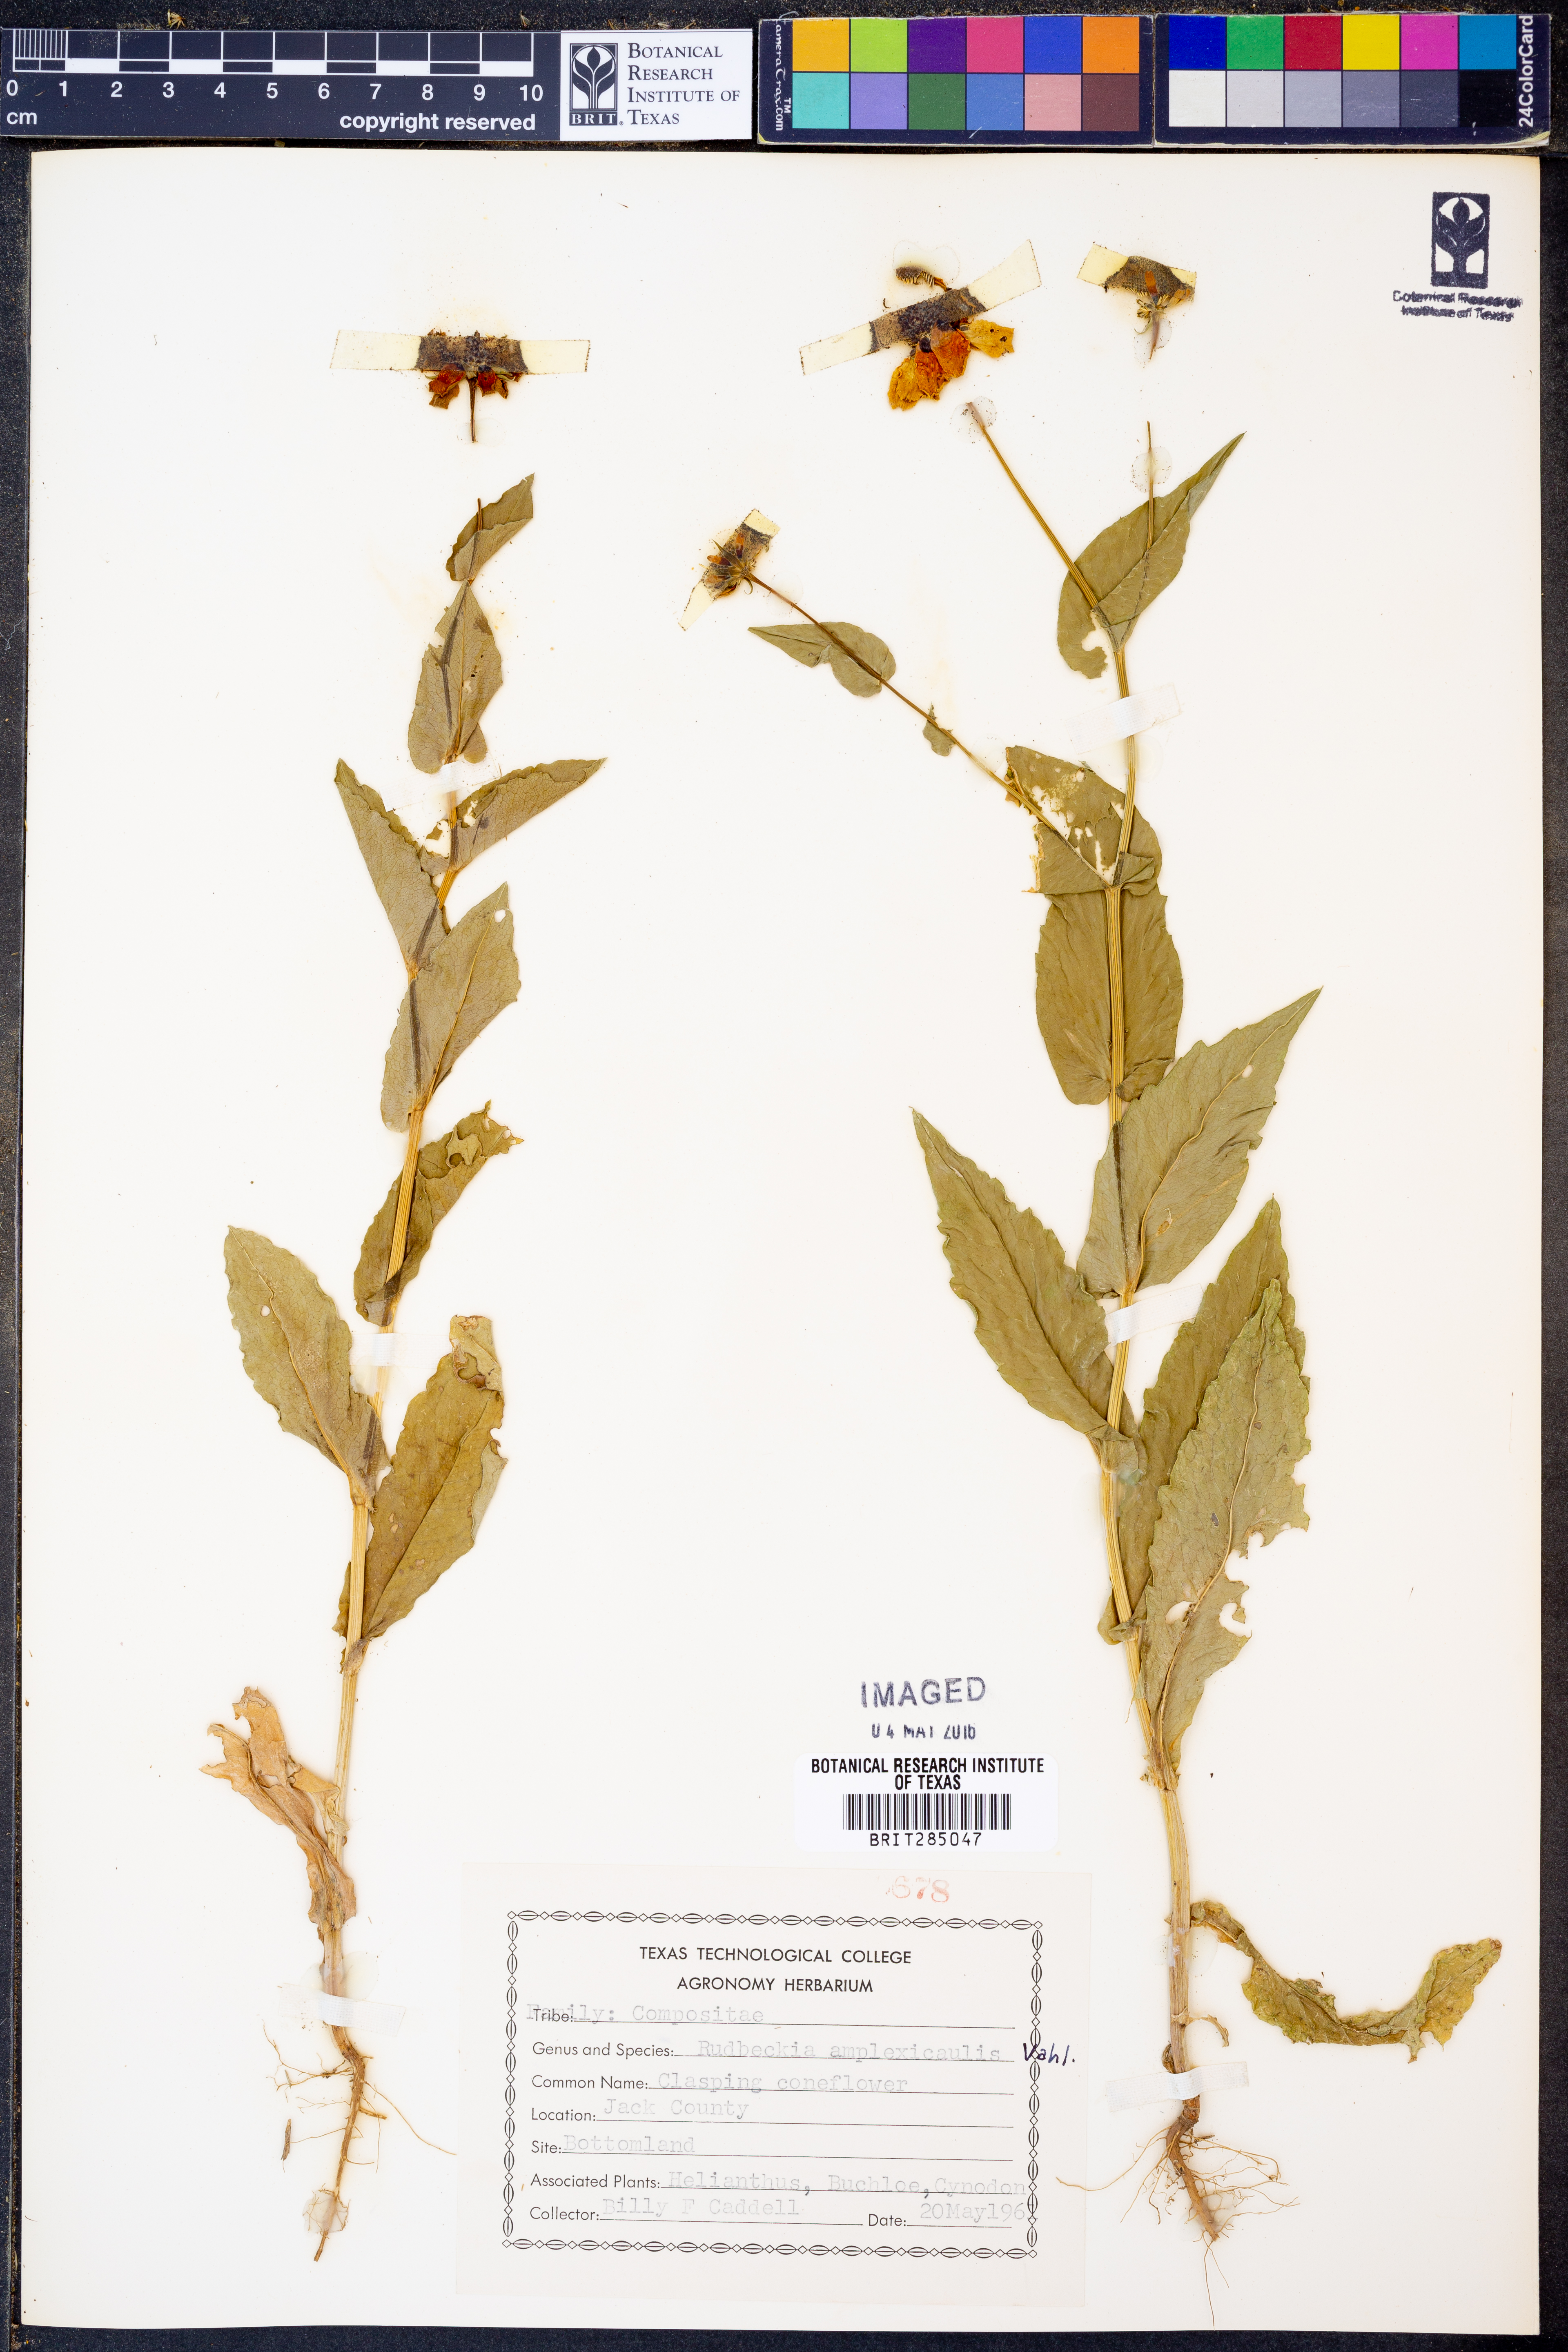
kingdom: Plantae
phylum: Tracheophyta
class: Magnoliopsida
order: Asterales
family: Asteraceae
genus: Rudbeckia
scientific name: Rudbeckia amplexicaulis
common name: Clasping-leaf coneflower
